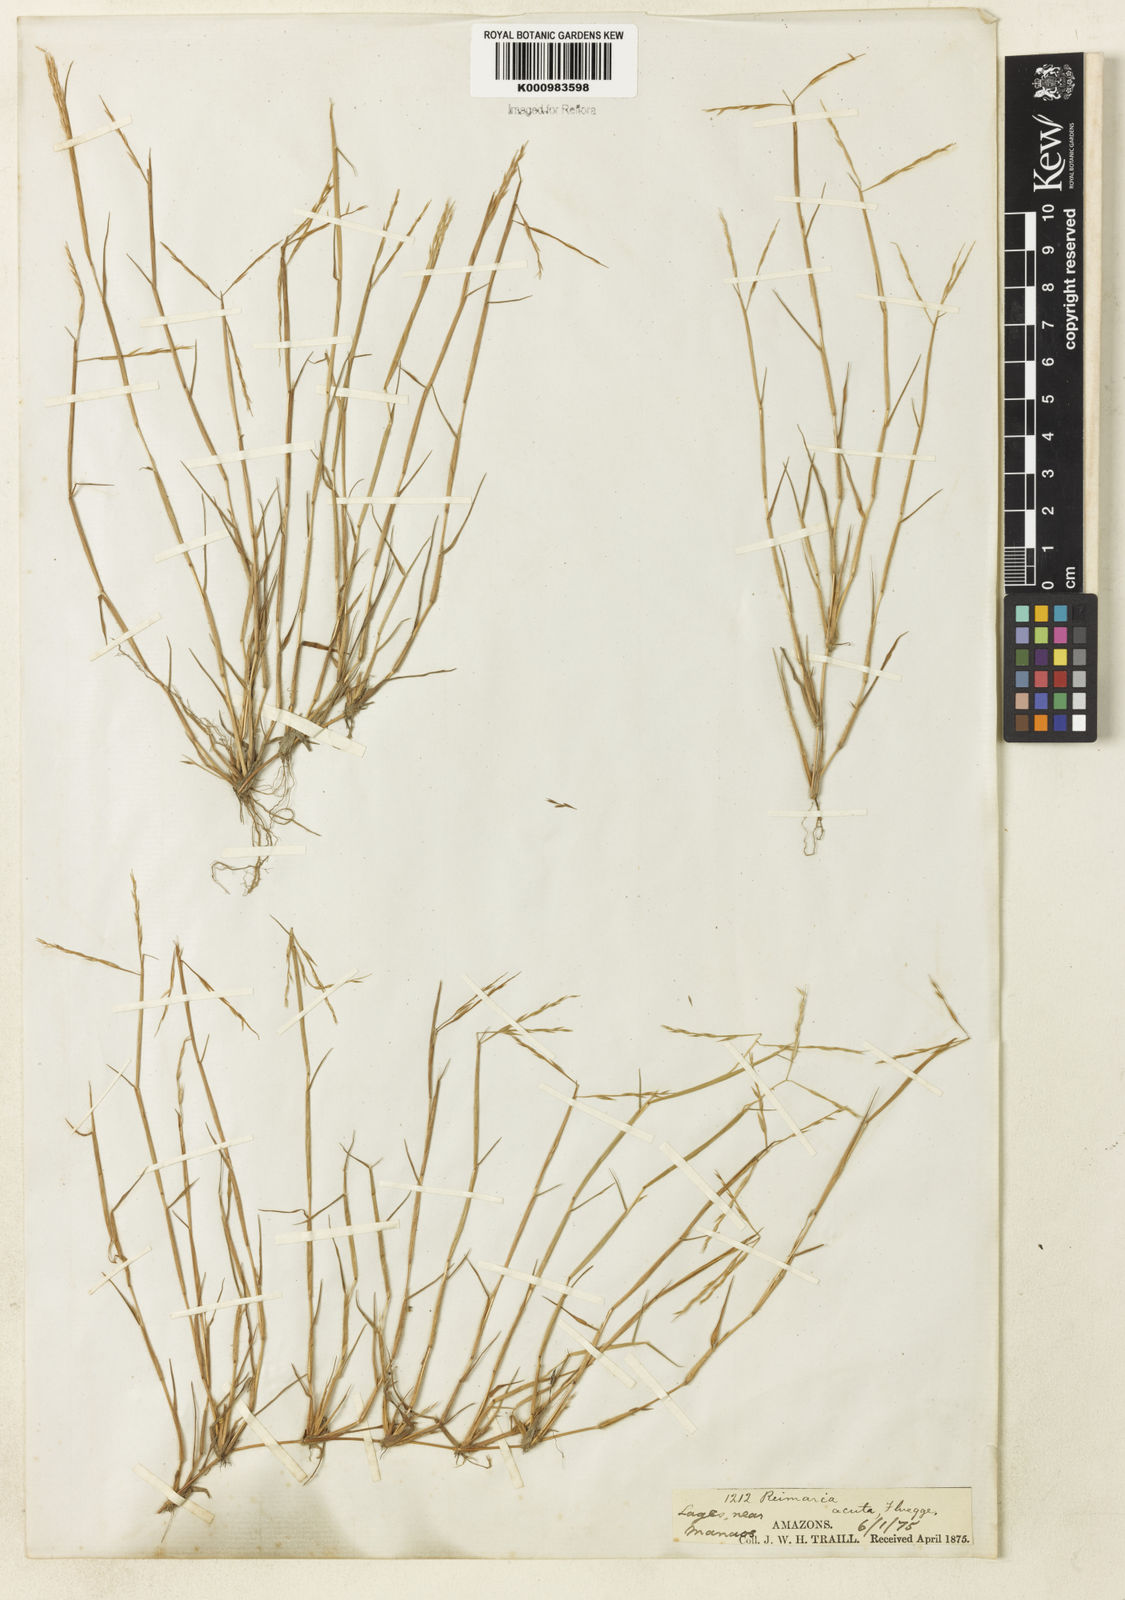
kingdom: Plantae
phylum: Tracheophyta
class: Liliopsida
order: Poales
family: Poaceae
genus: Paspalum
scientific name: Paspalum
